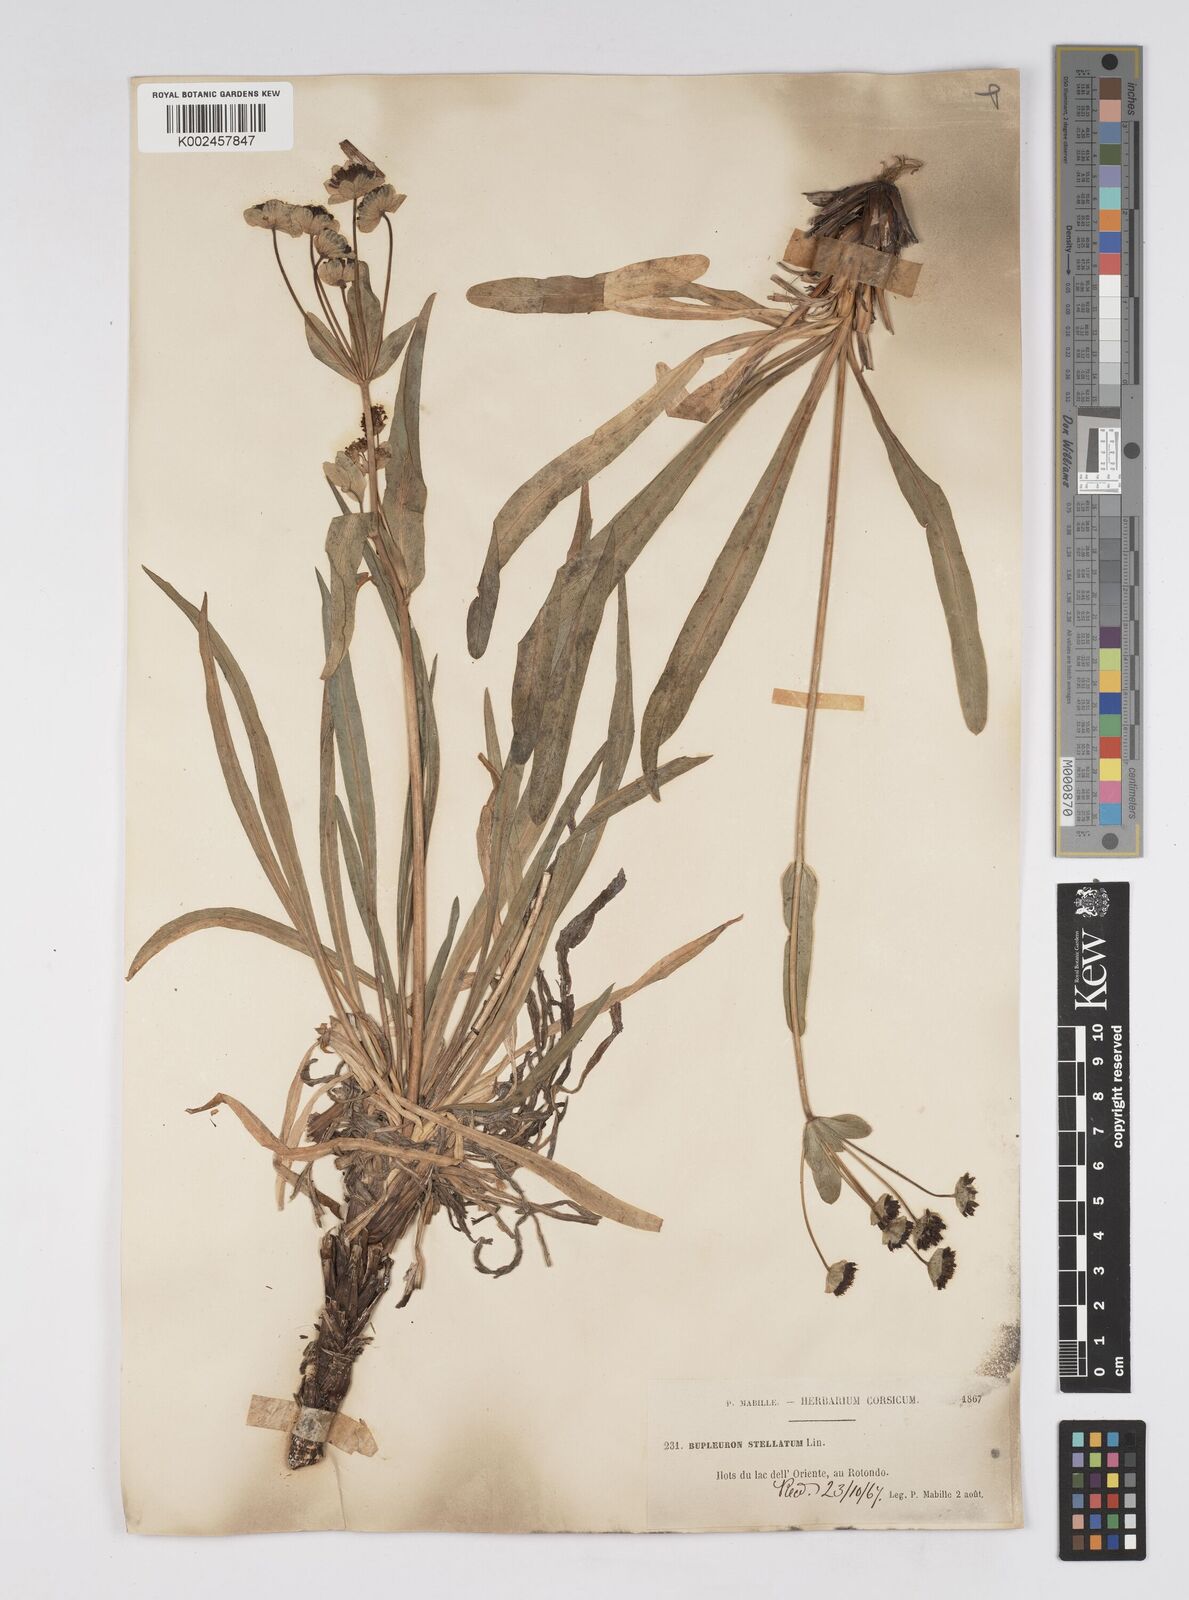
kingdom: Plantae
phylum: Tracheophyta
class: Magnoliopsida
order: Apiales
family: Apiaceae
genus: Bupleurum
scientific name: Bupleurum stellatum
